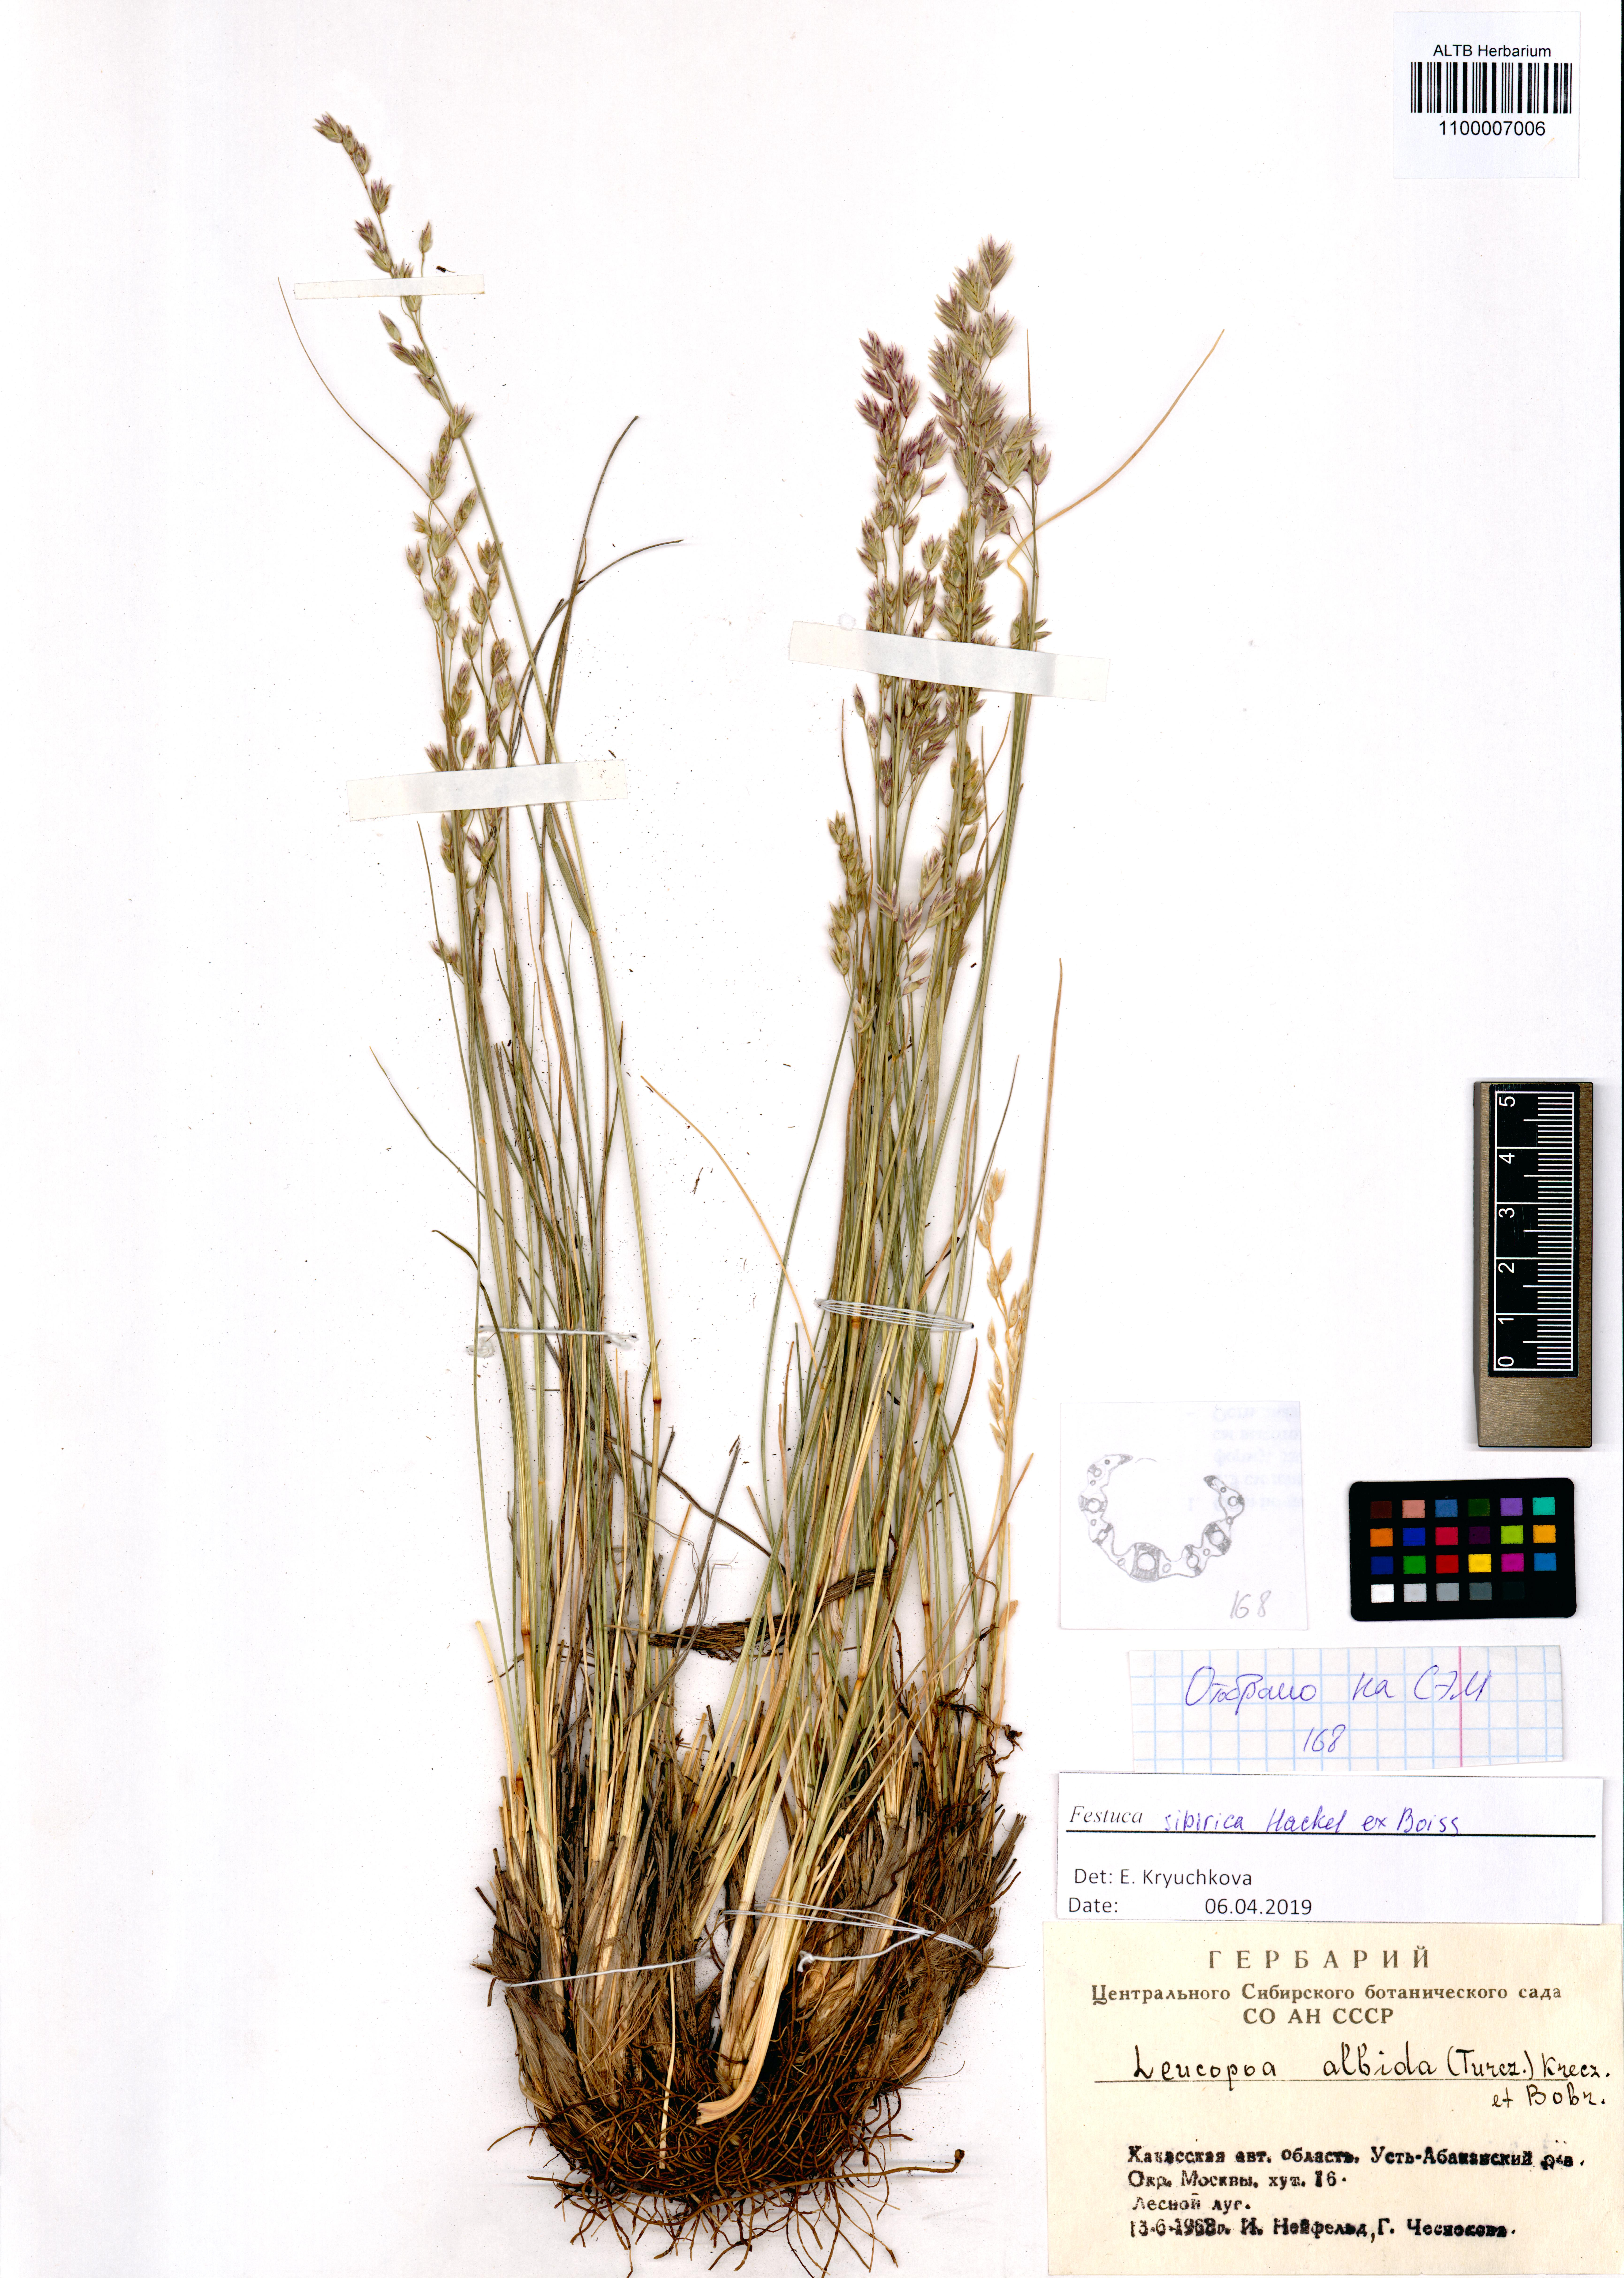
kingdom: Plantae
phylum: Tracheophyta
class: Liliopsida
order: Poales
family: Poaceae
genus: Festuca
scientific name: Festuca sibirica
